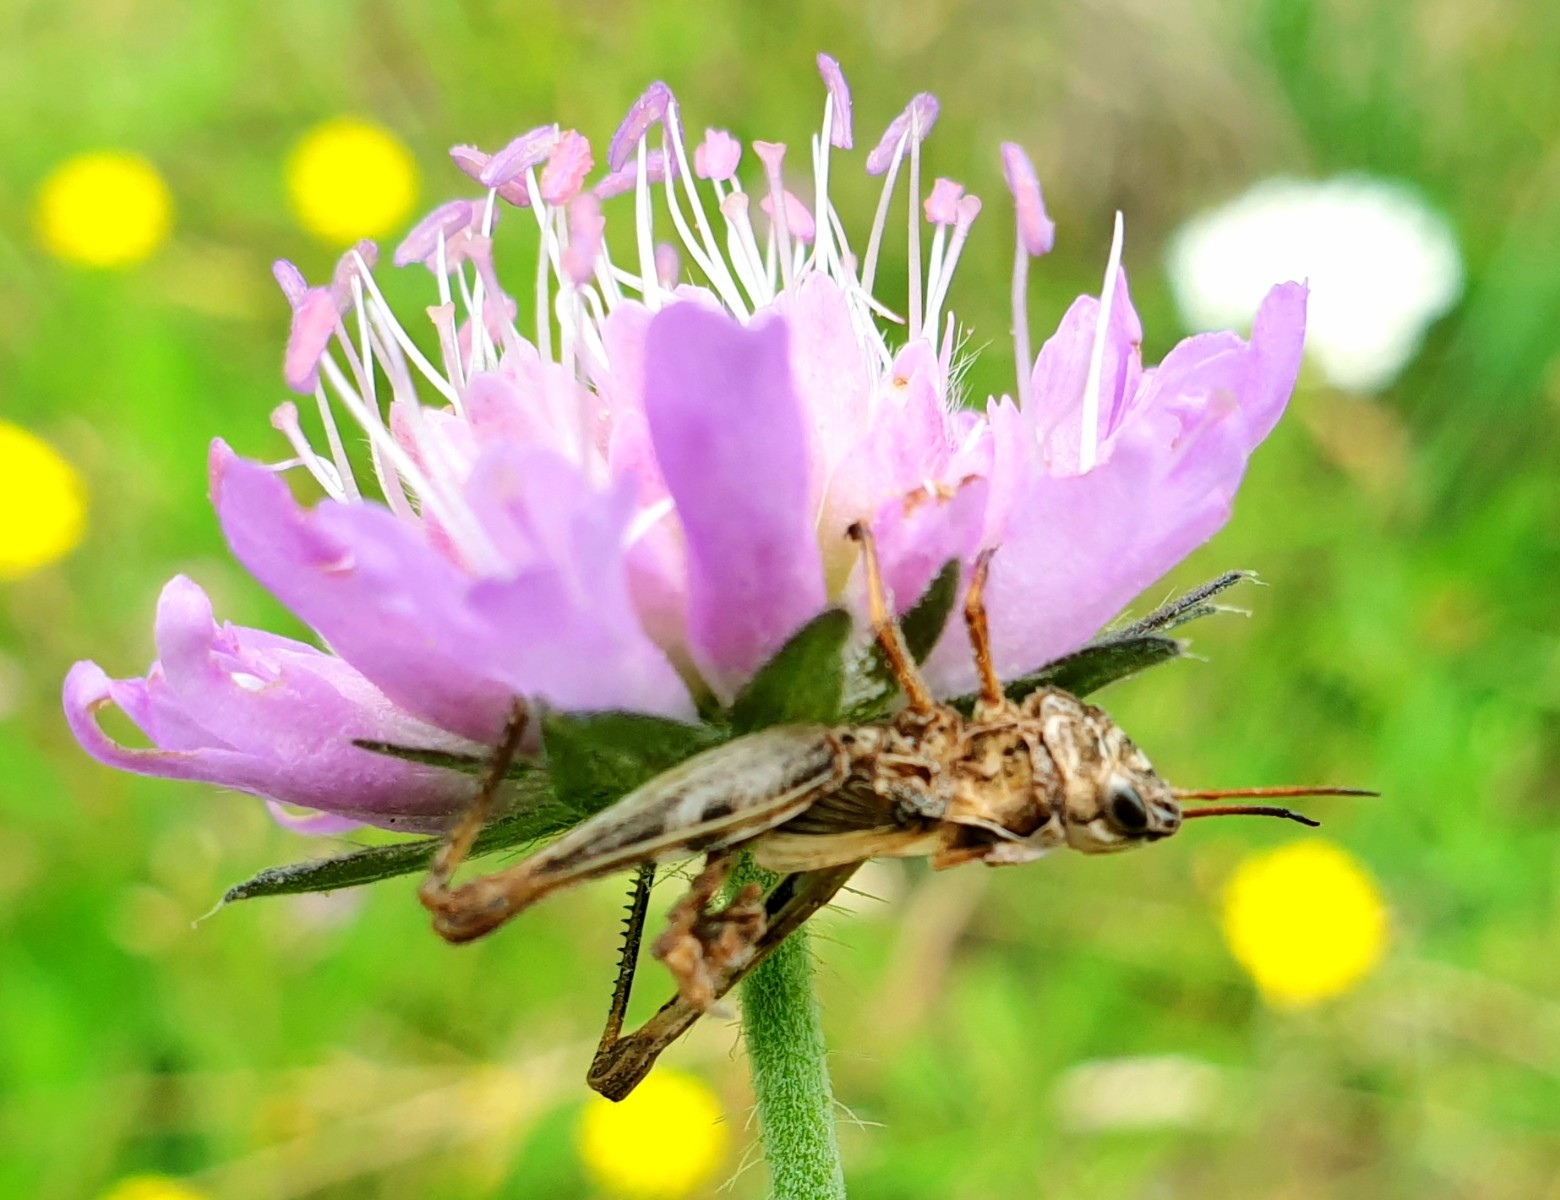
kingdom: Fungi
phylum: Entomophthoromycota
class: Entomophthoromycetes
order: Entomophthorales
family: Entomophthoraceae
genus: Entomophaga
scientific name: Entomophaga grylli
